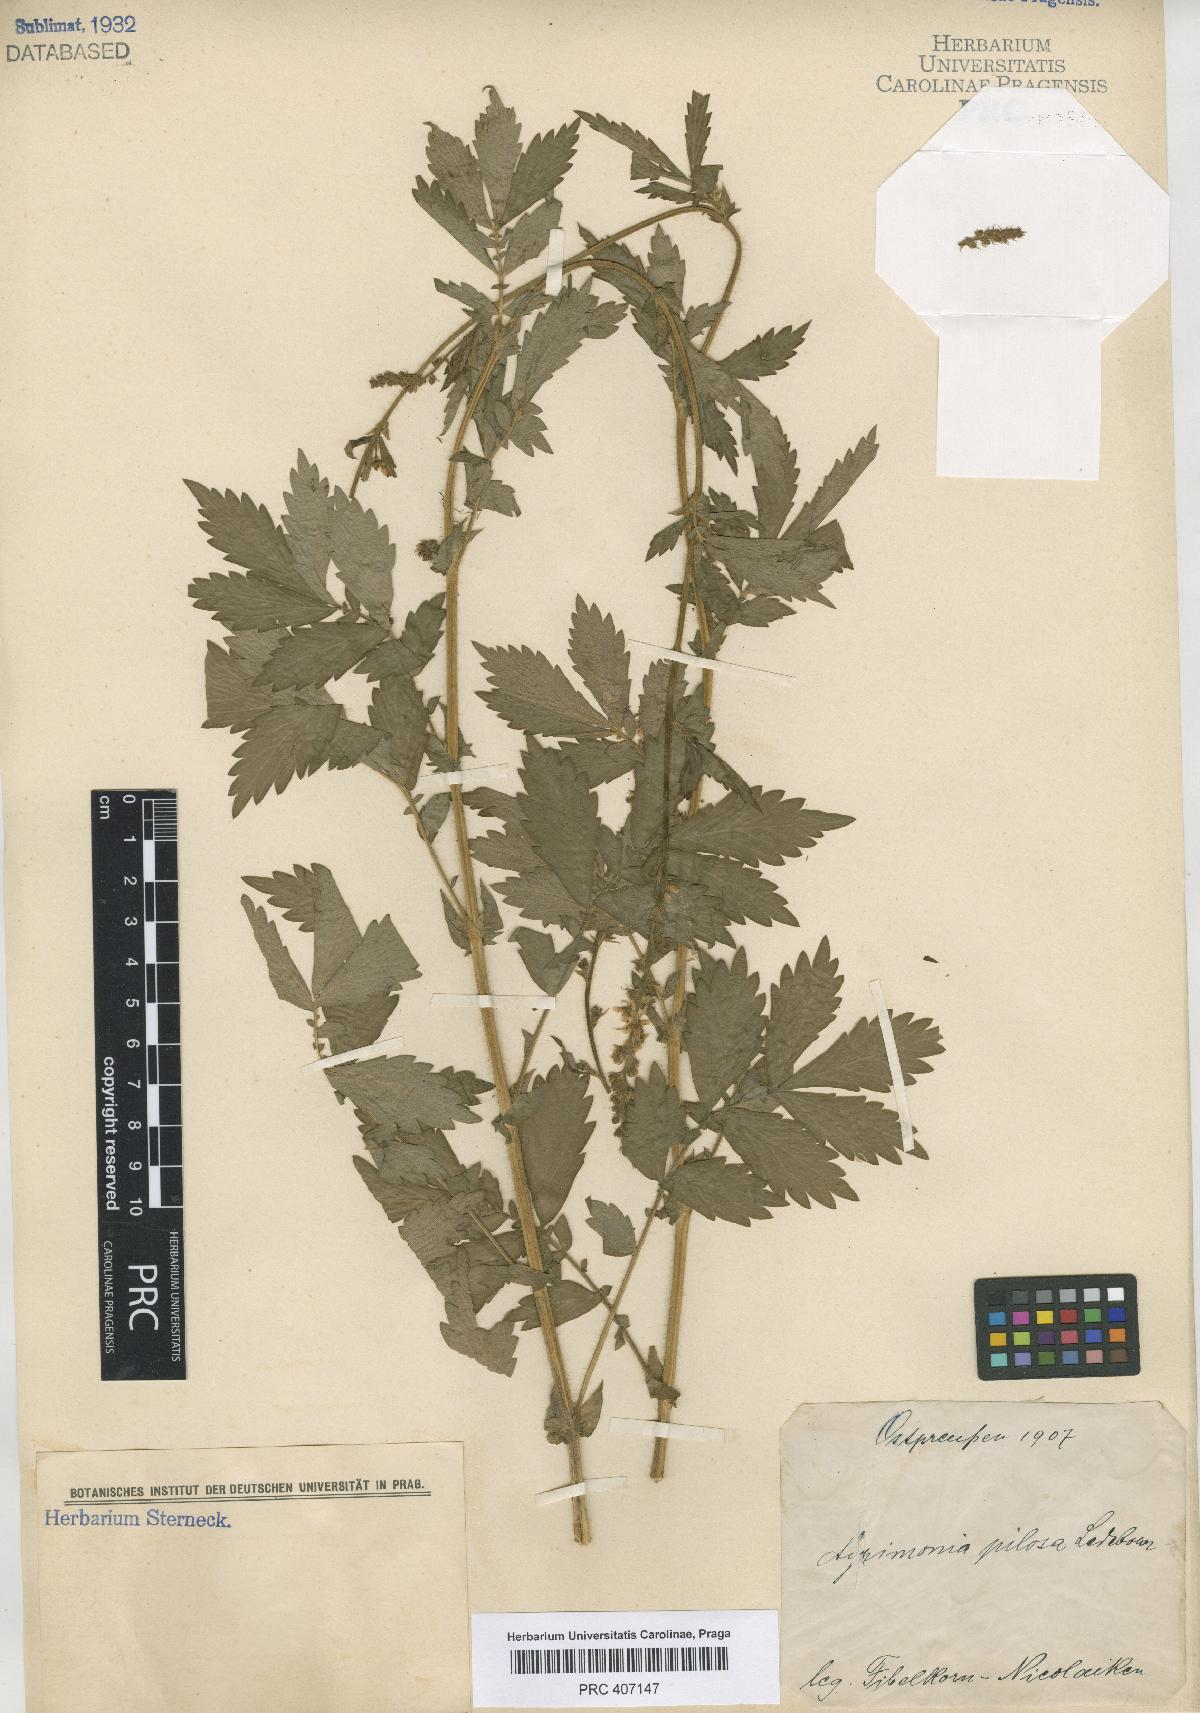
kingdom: Plantae
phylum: Tracheophyta
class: Magnoliopsida
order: Rosales
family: Rosaceae
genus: Agrimonia
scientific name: Agrimonia pilosa
